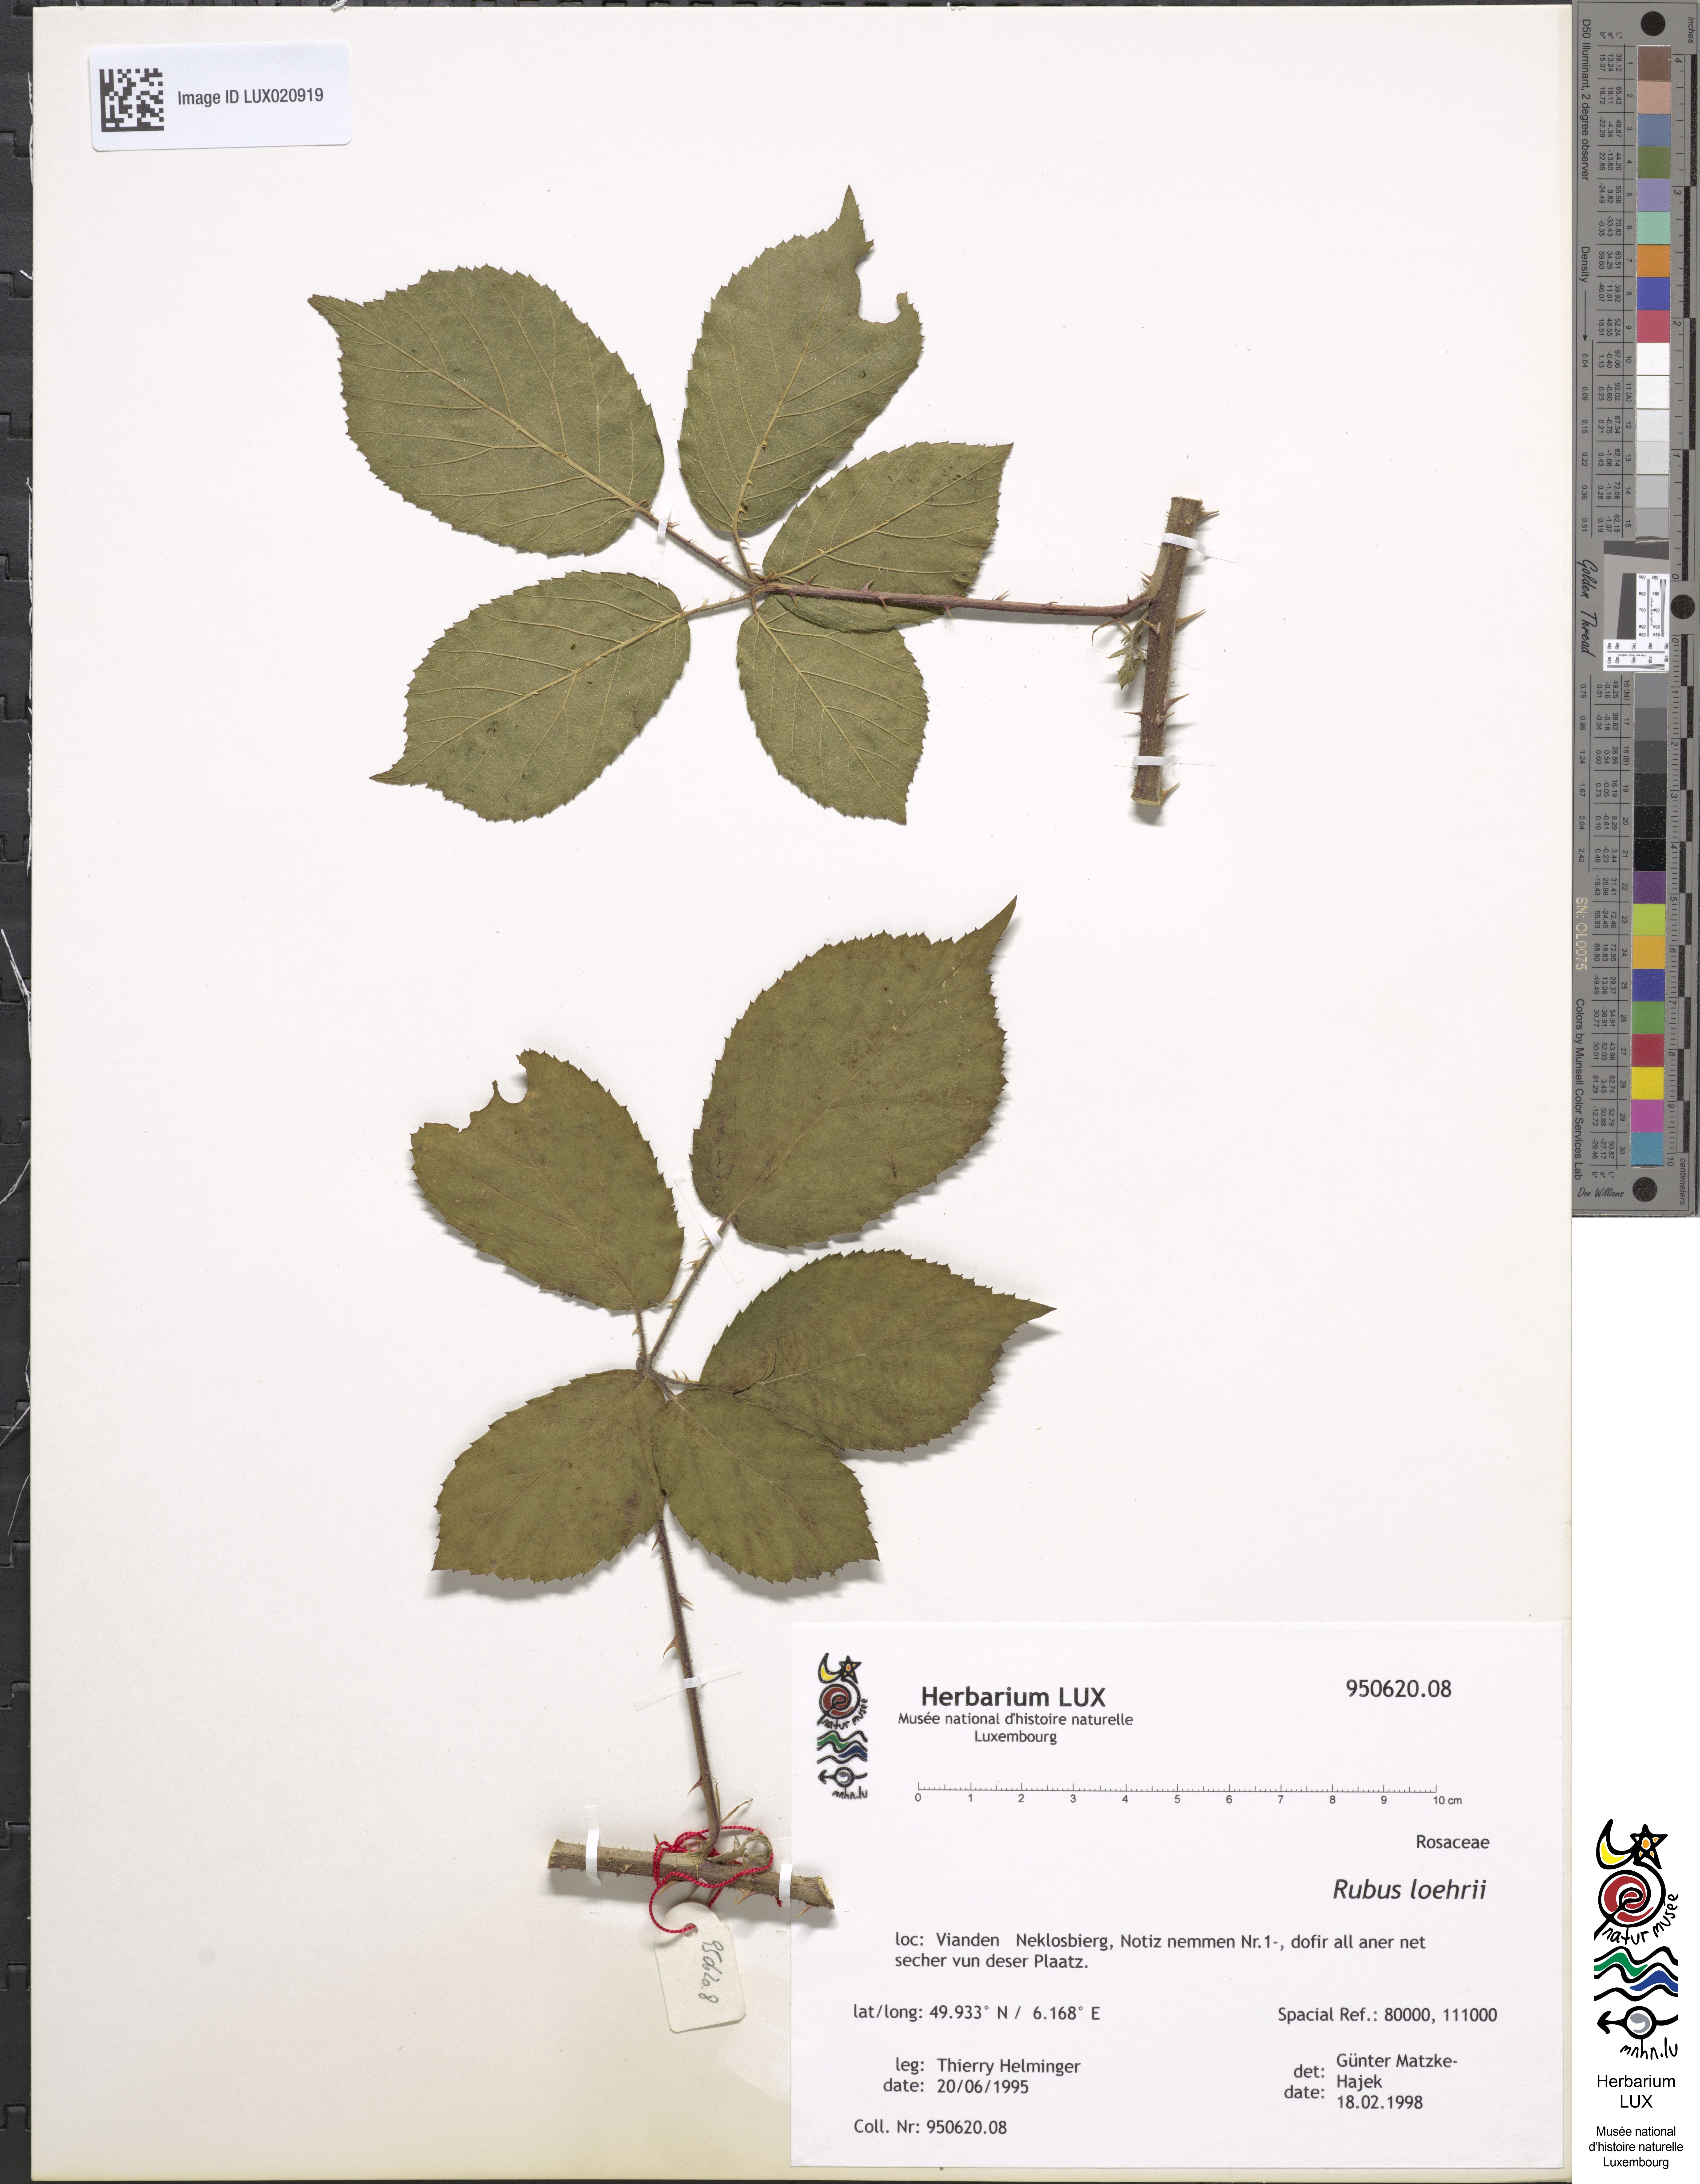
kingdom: Plantae
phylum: Tracheophyta
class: Magnoliopsida
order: Rosales
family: Rosaceae
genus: Rubus
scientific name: Rubus loehrii
